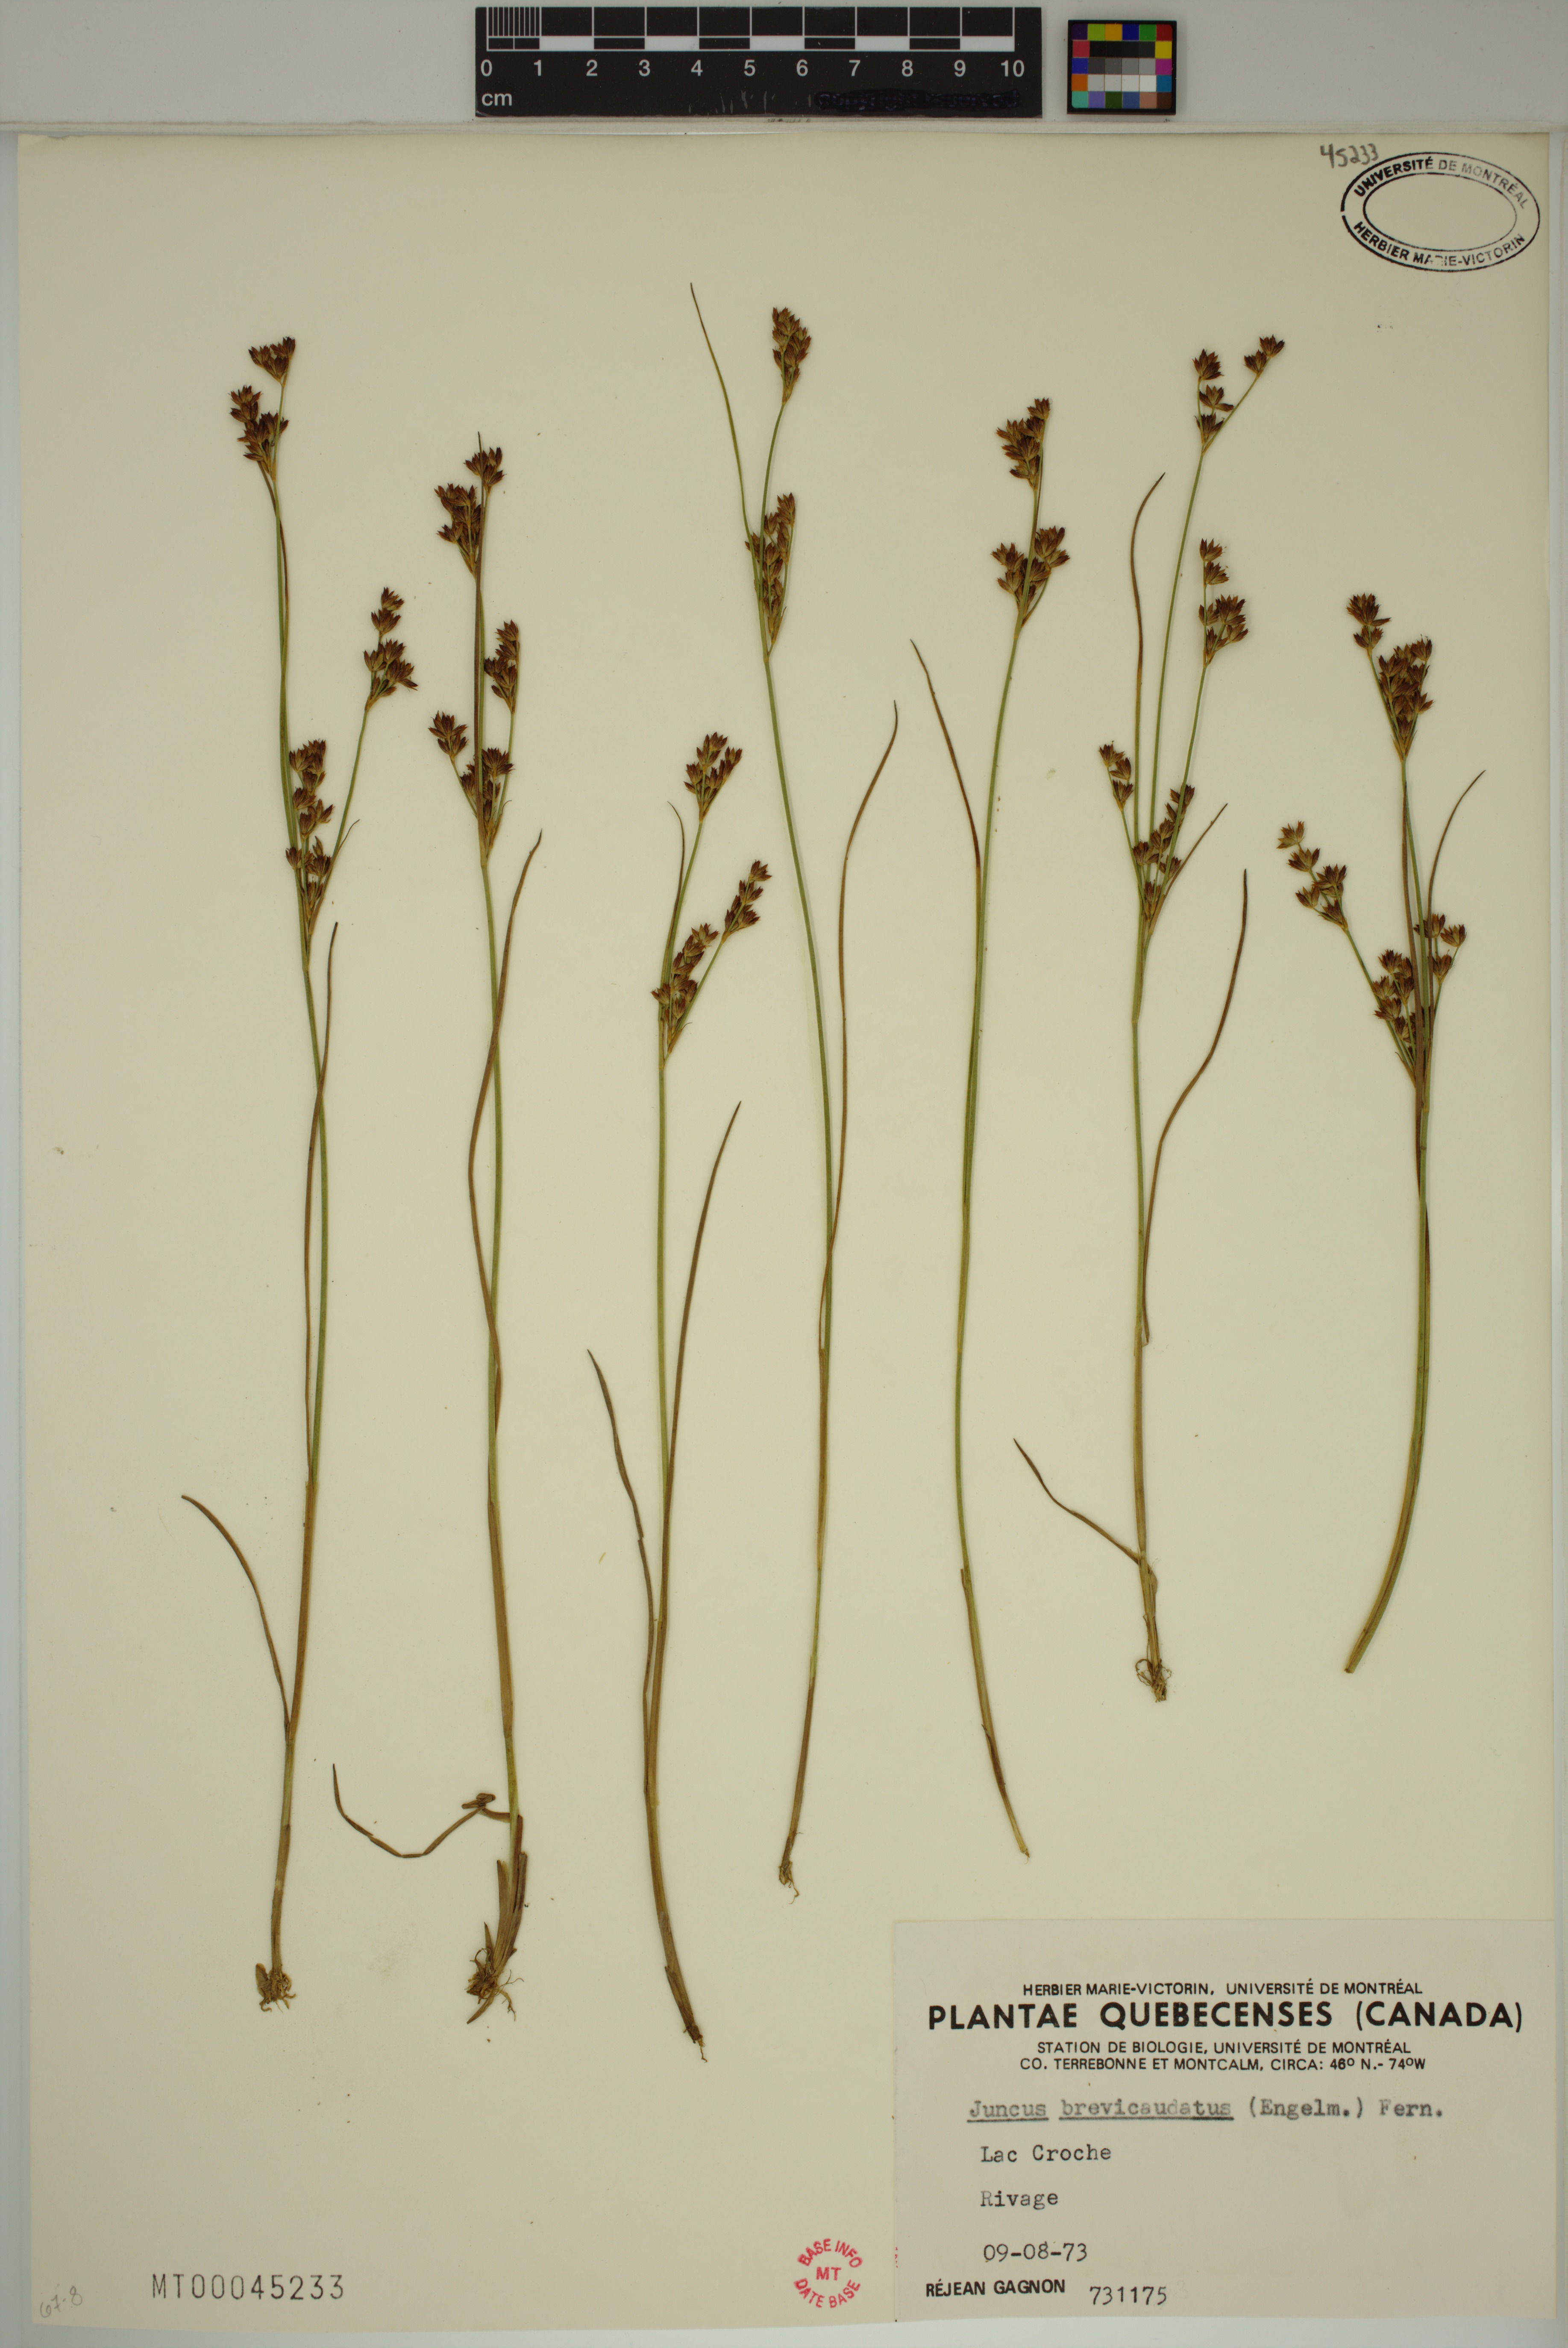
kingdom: Plantae
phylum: Tracheophyta
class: Liliopsida
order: Poales
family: Juncaceae
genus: Juncus
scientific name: Juncus brevicaudatus
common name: Narrow-panicle rush
